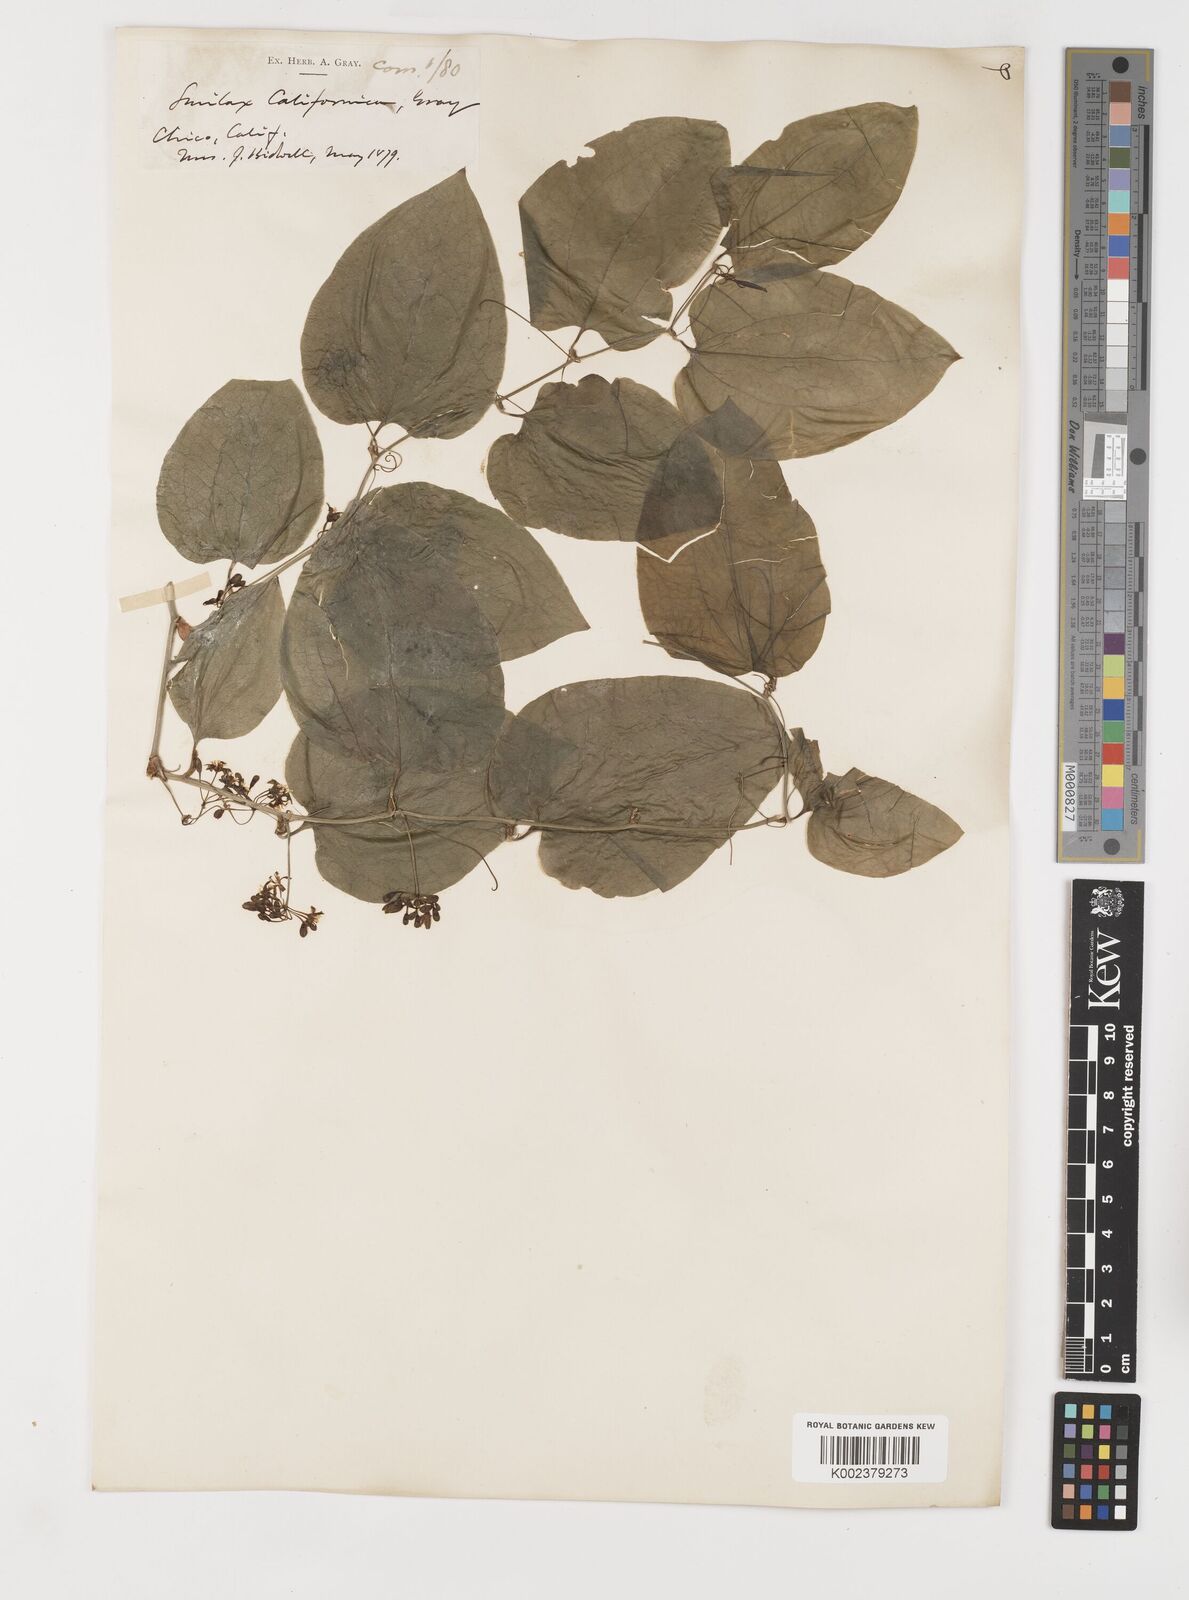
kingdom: Plantae
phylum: Tracheophyta
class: Liliopsida
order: Liliales
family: Smilacaceae
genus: Smilax
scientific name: Smilax californica
